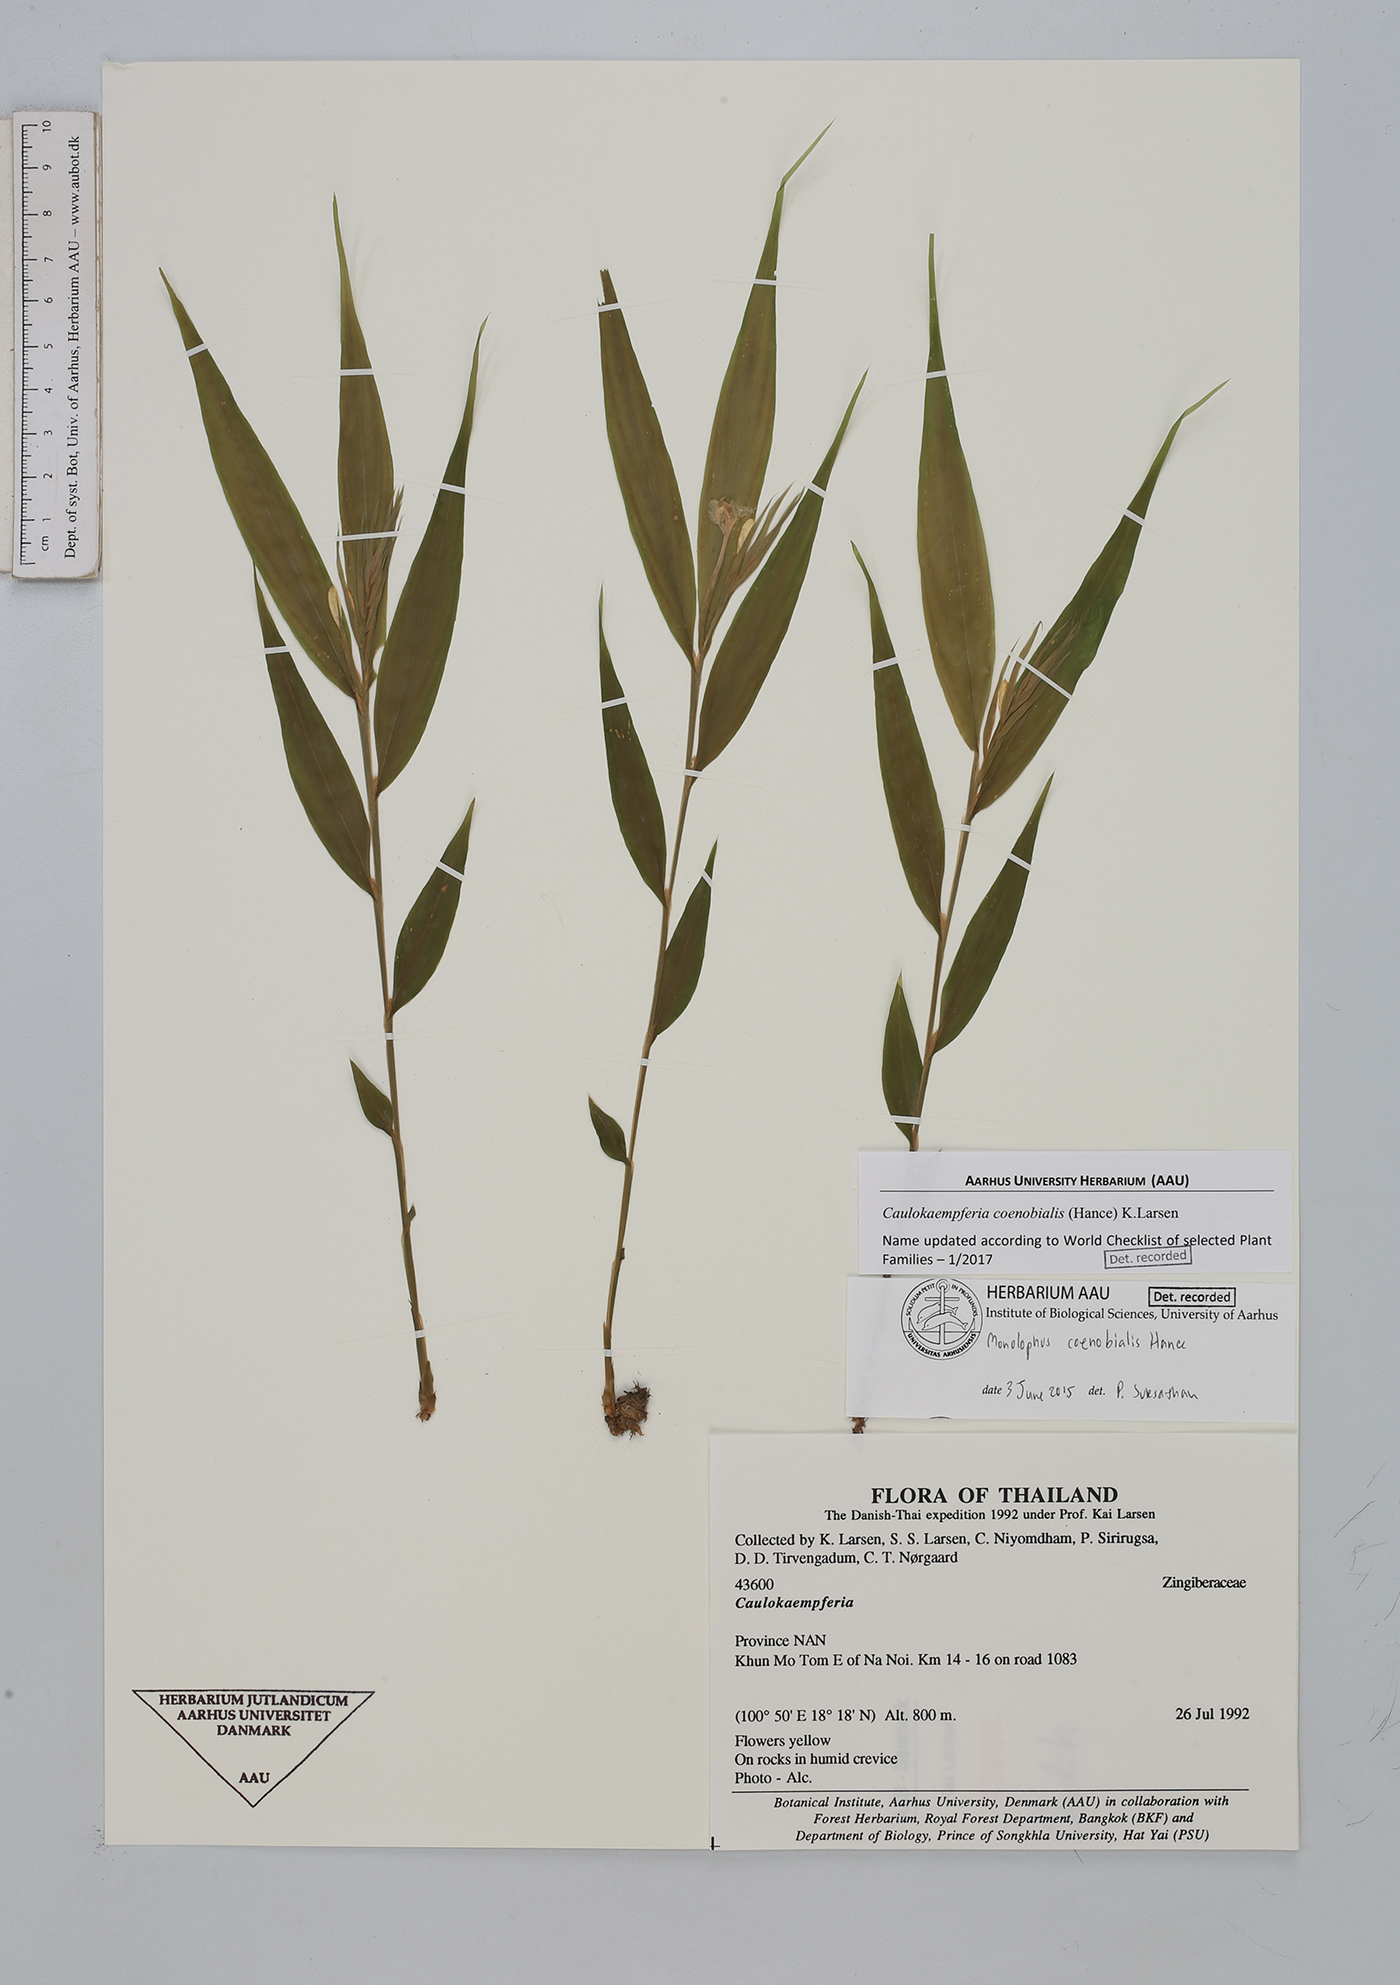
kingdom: Plantae
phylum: Tracheophyta
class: Liliopsida
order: Zingiberales
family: Zingiberaceae
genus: Caulokaempferia
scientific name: Caulokaempferia coenobialis
